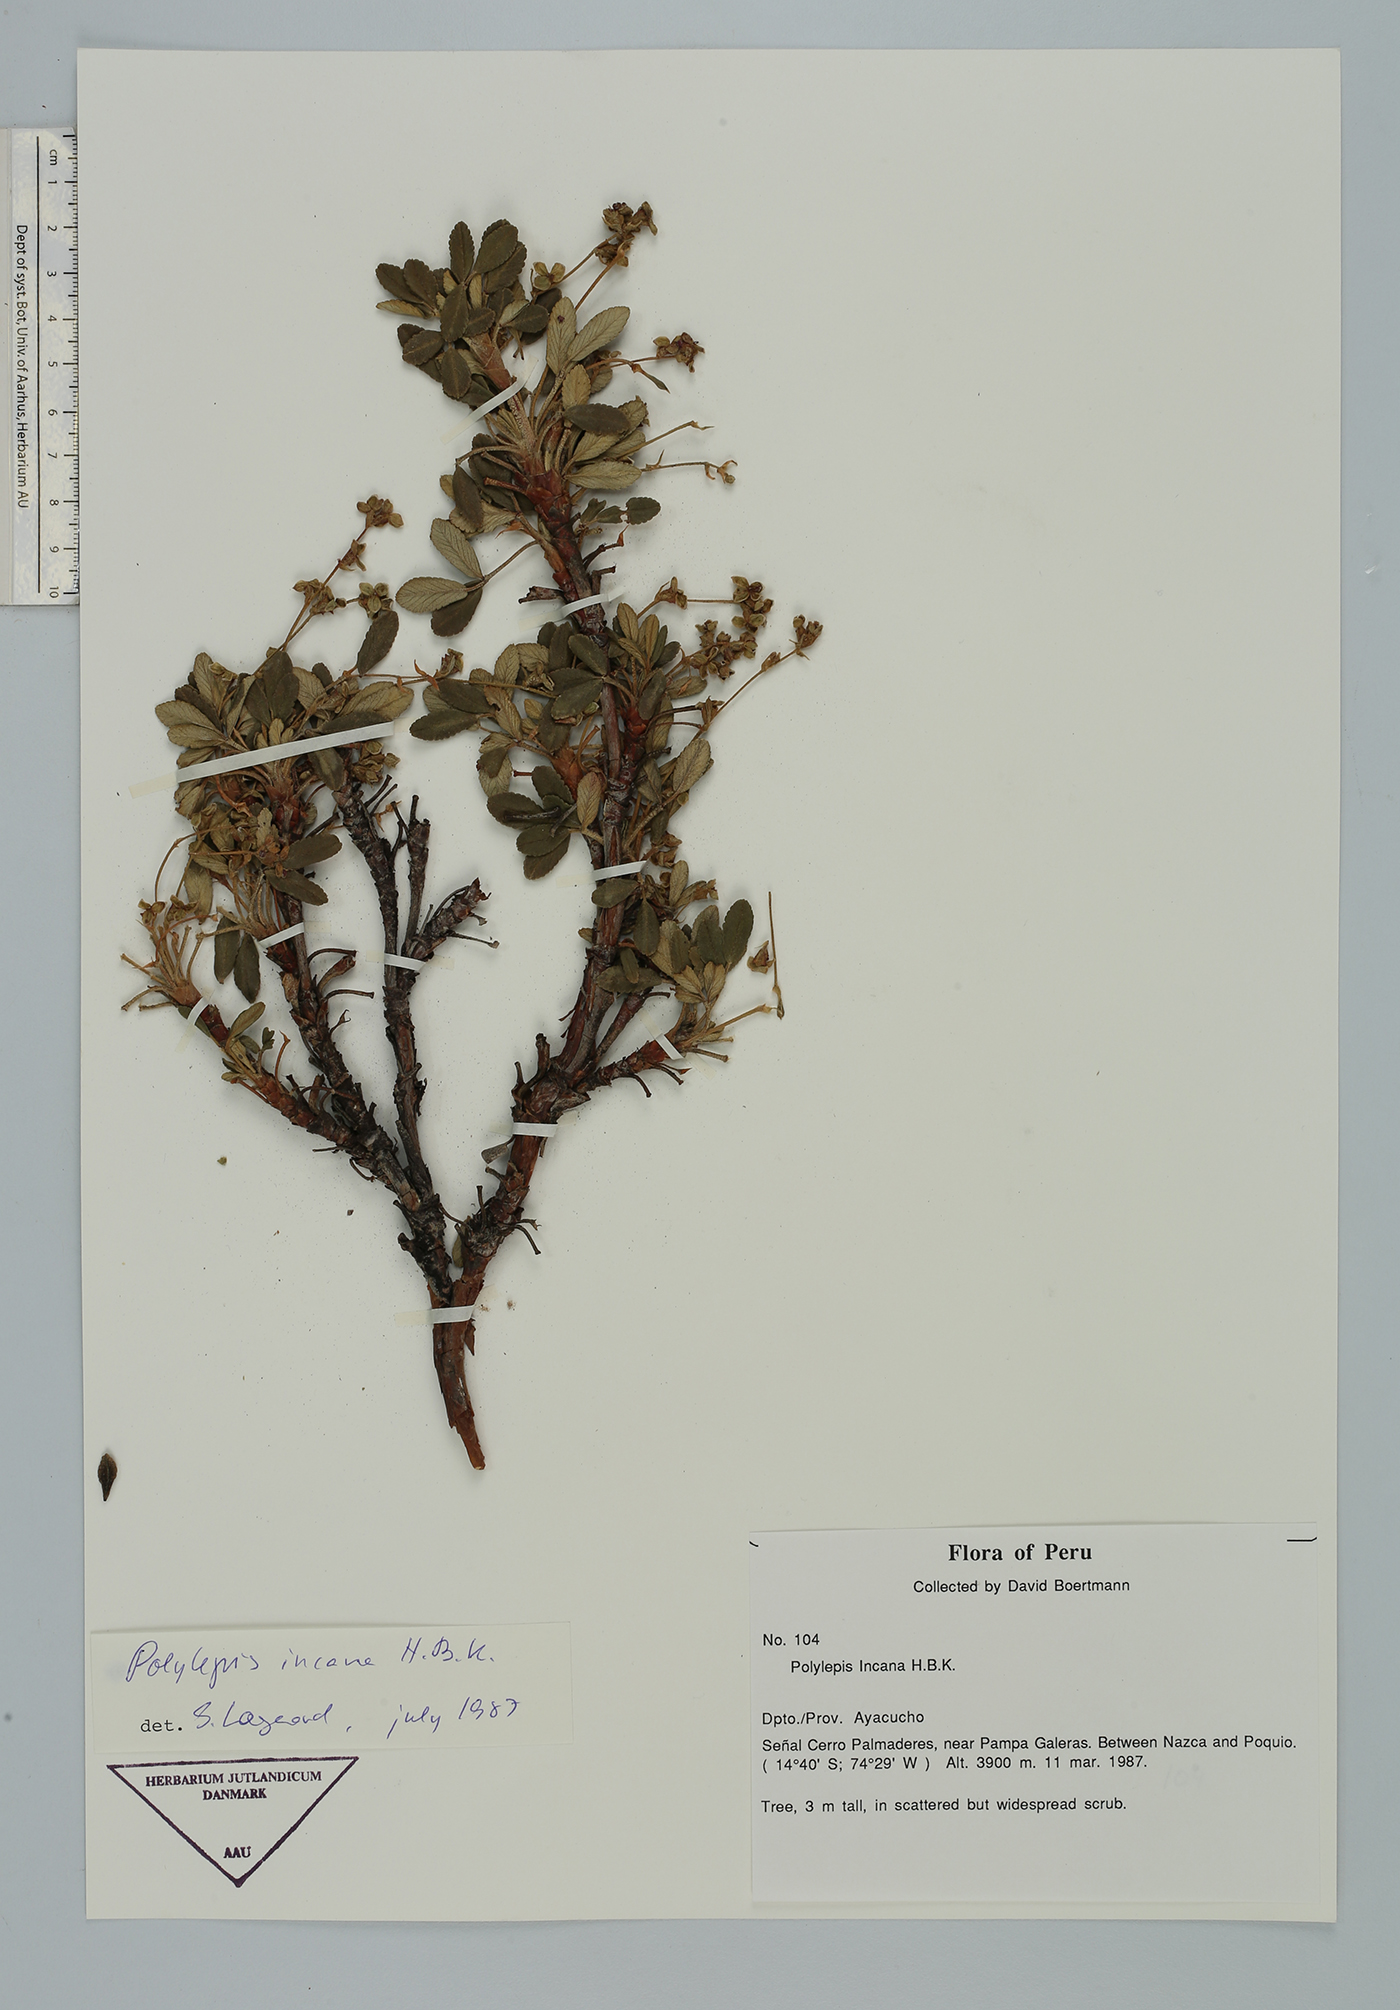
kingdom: Plantae
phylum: Tracheophyta
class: Magnoliopsida
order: Rosales
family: Rosaceae
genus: Polylepis
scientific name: Polylepis tomentella
